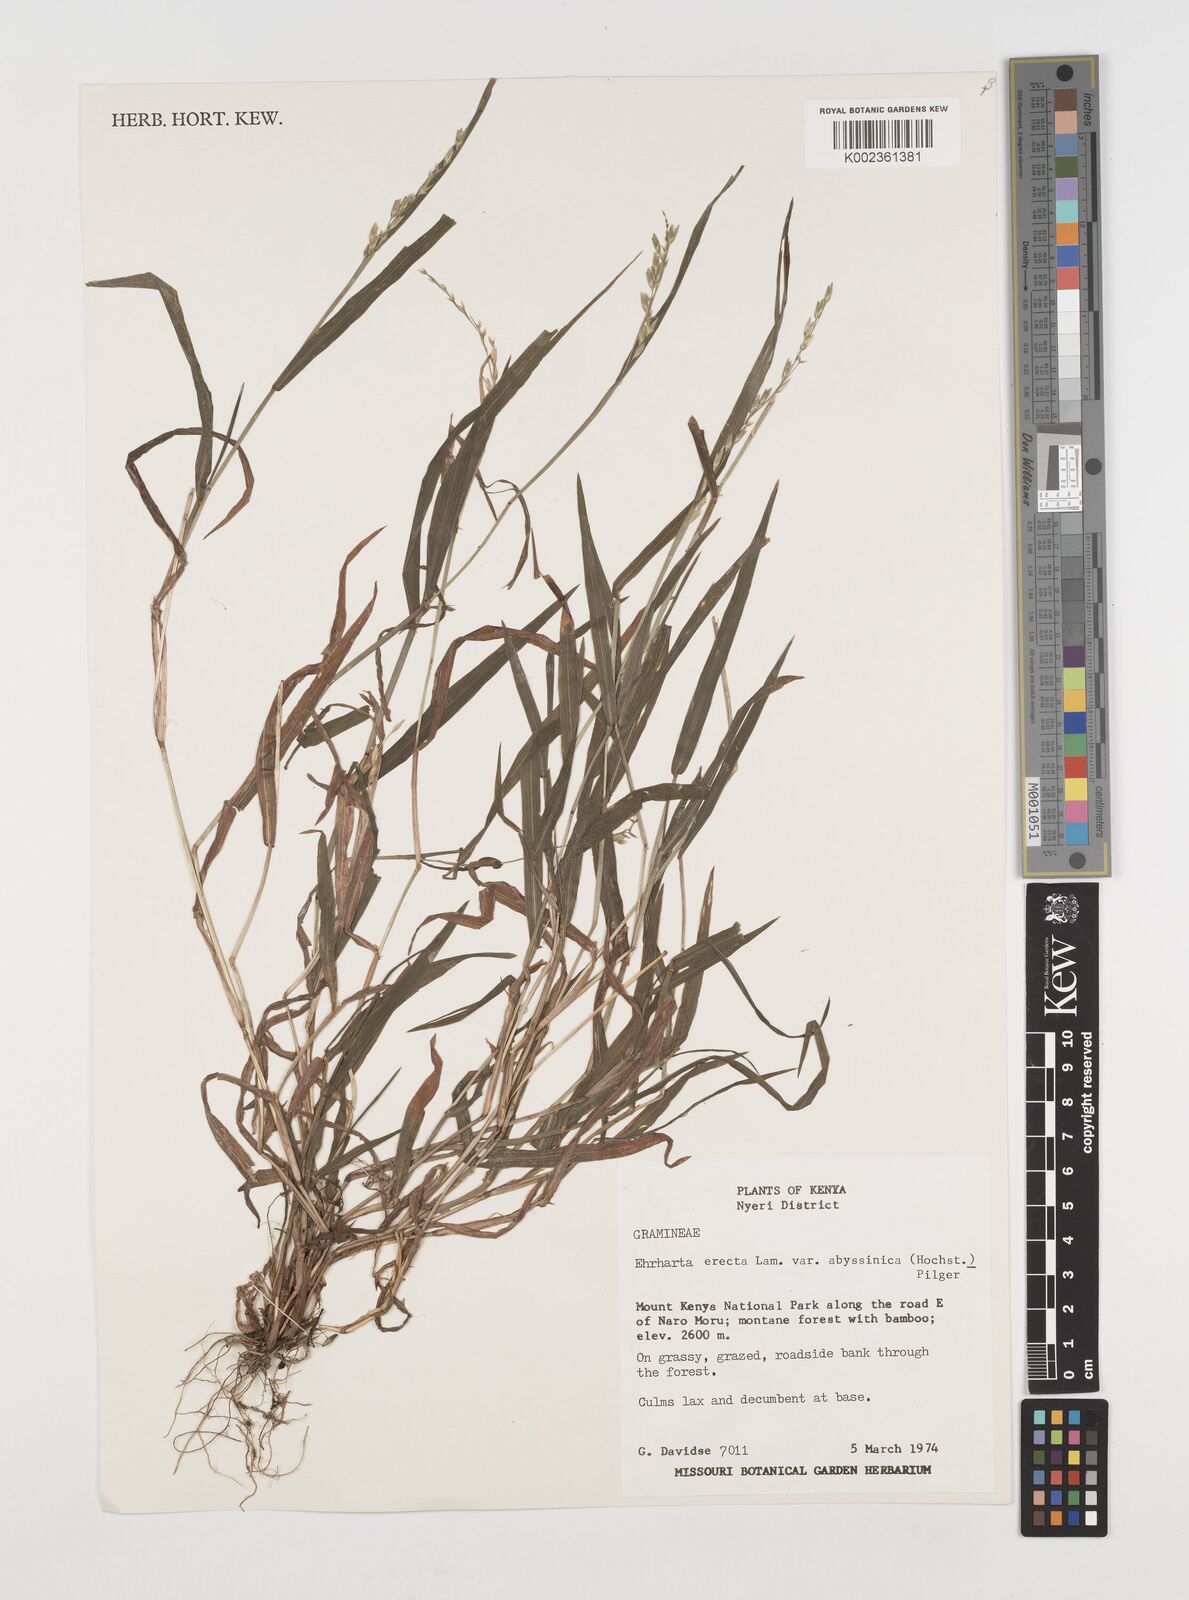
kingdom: Plantae
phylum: Tracheophyta
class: Liliopsida
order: Poales
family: Poaceae
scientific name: Poaceae
